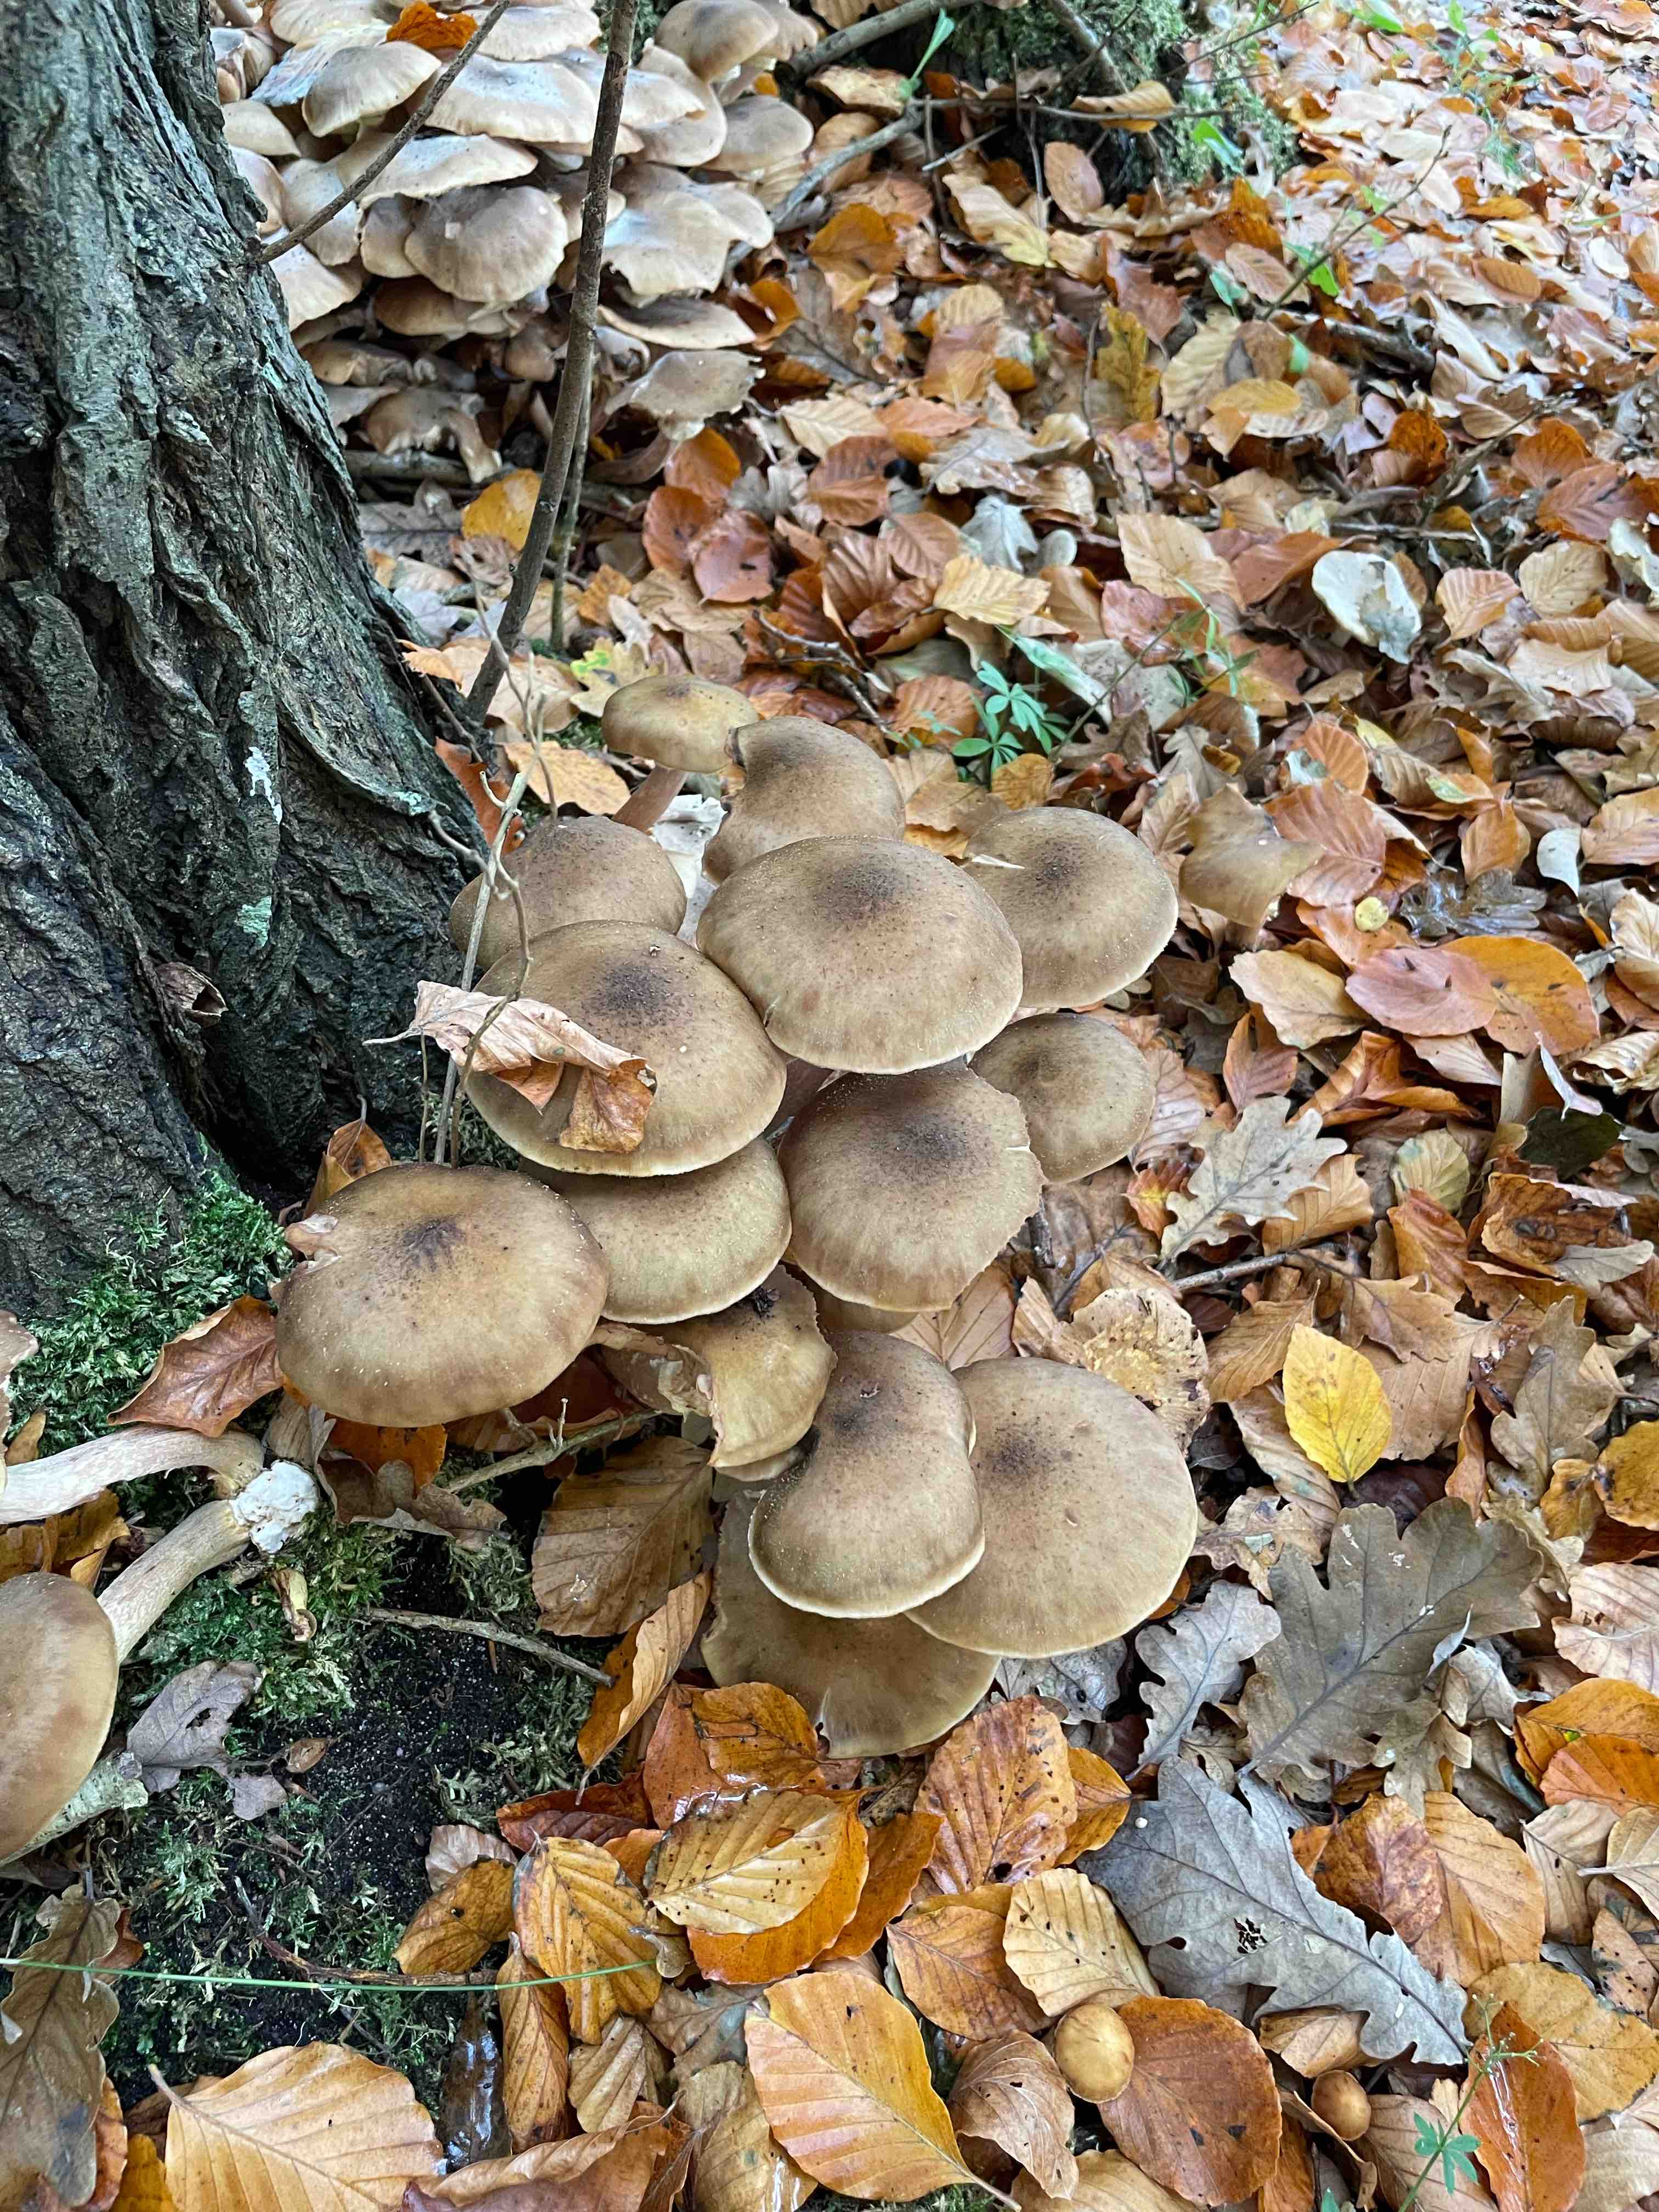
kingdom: Fungi
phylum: Basidiomycota
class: Agaricomycetes
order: Agaricales
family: Physalacriaceae
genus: Armillaria
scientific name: Armillaria
